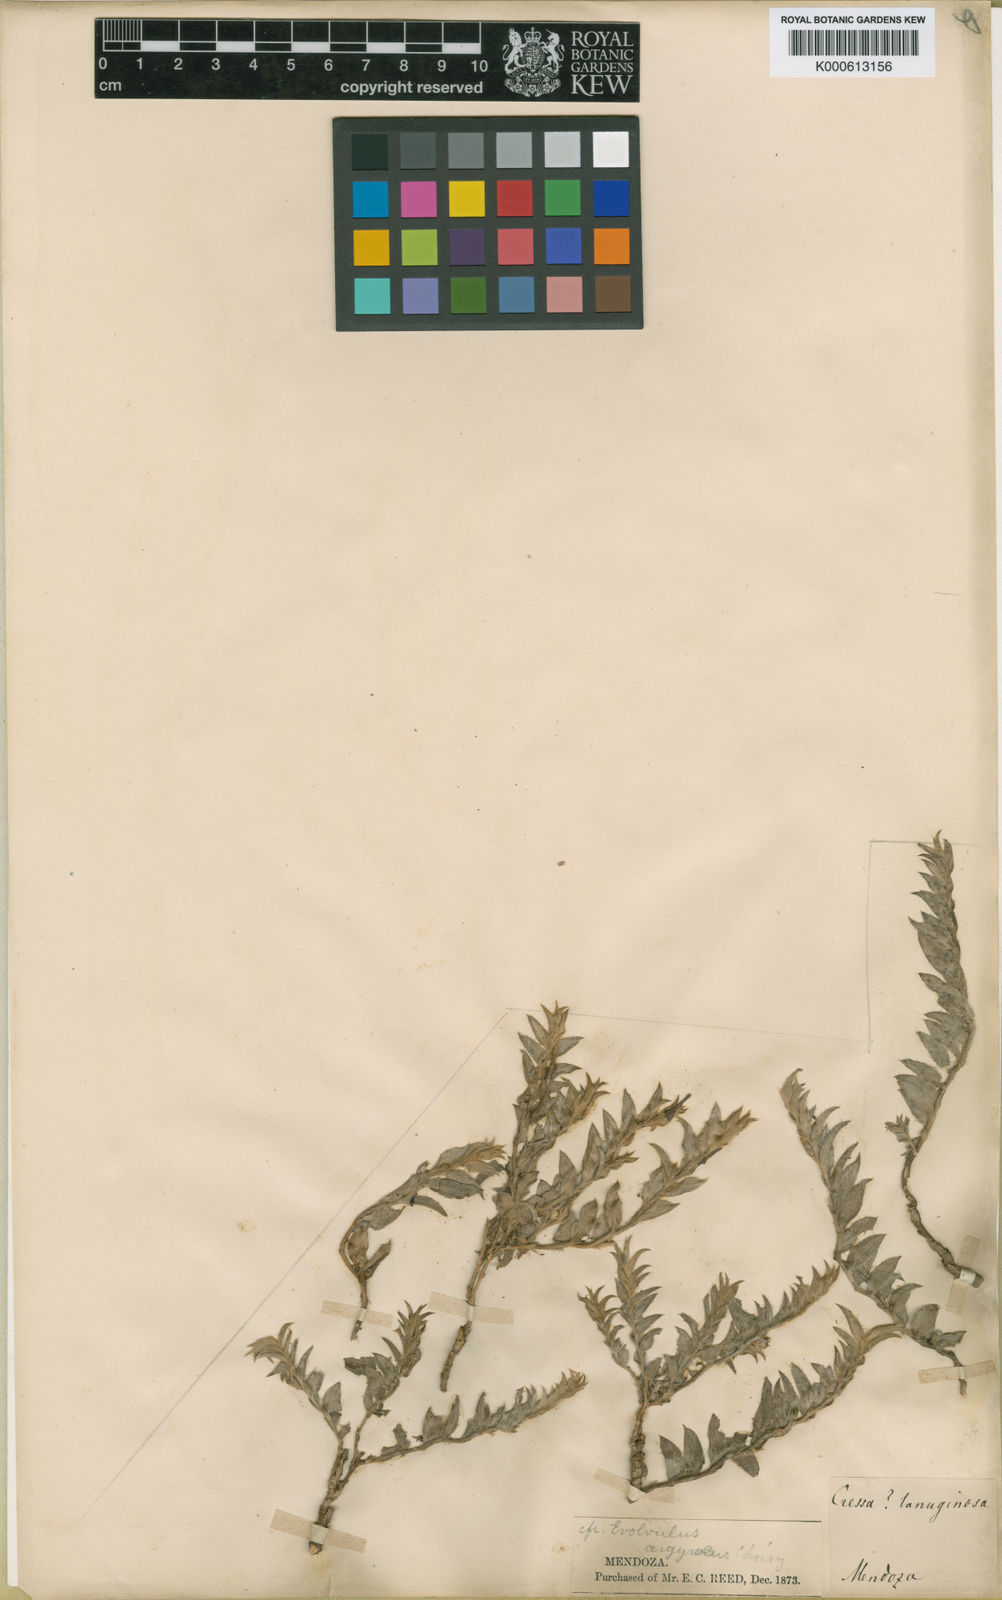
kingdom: Plantae
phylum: Tracheophyta
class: Magnoliopsida
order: Solanales
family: Convolvulaceae
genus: Evolvulus
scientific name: Evolvulus sericeus
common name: Blue dots
